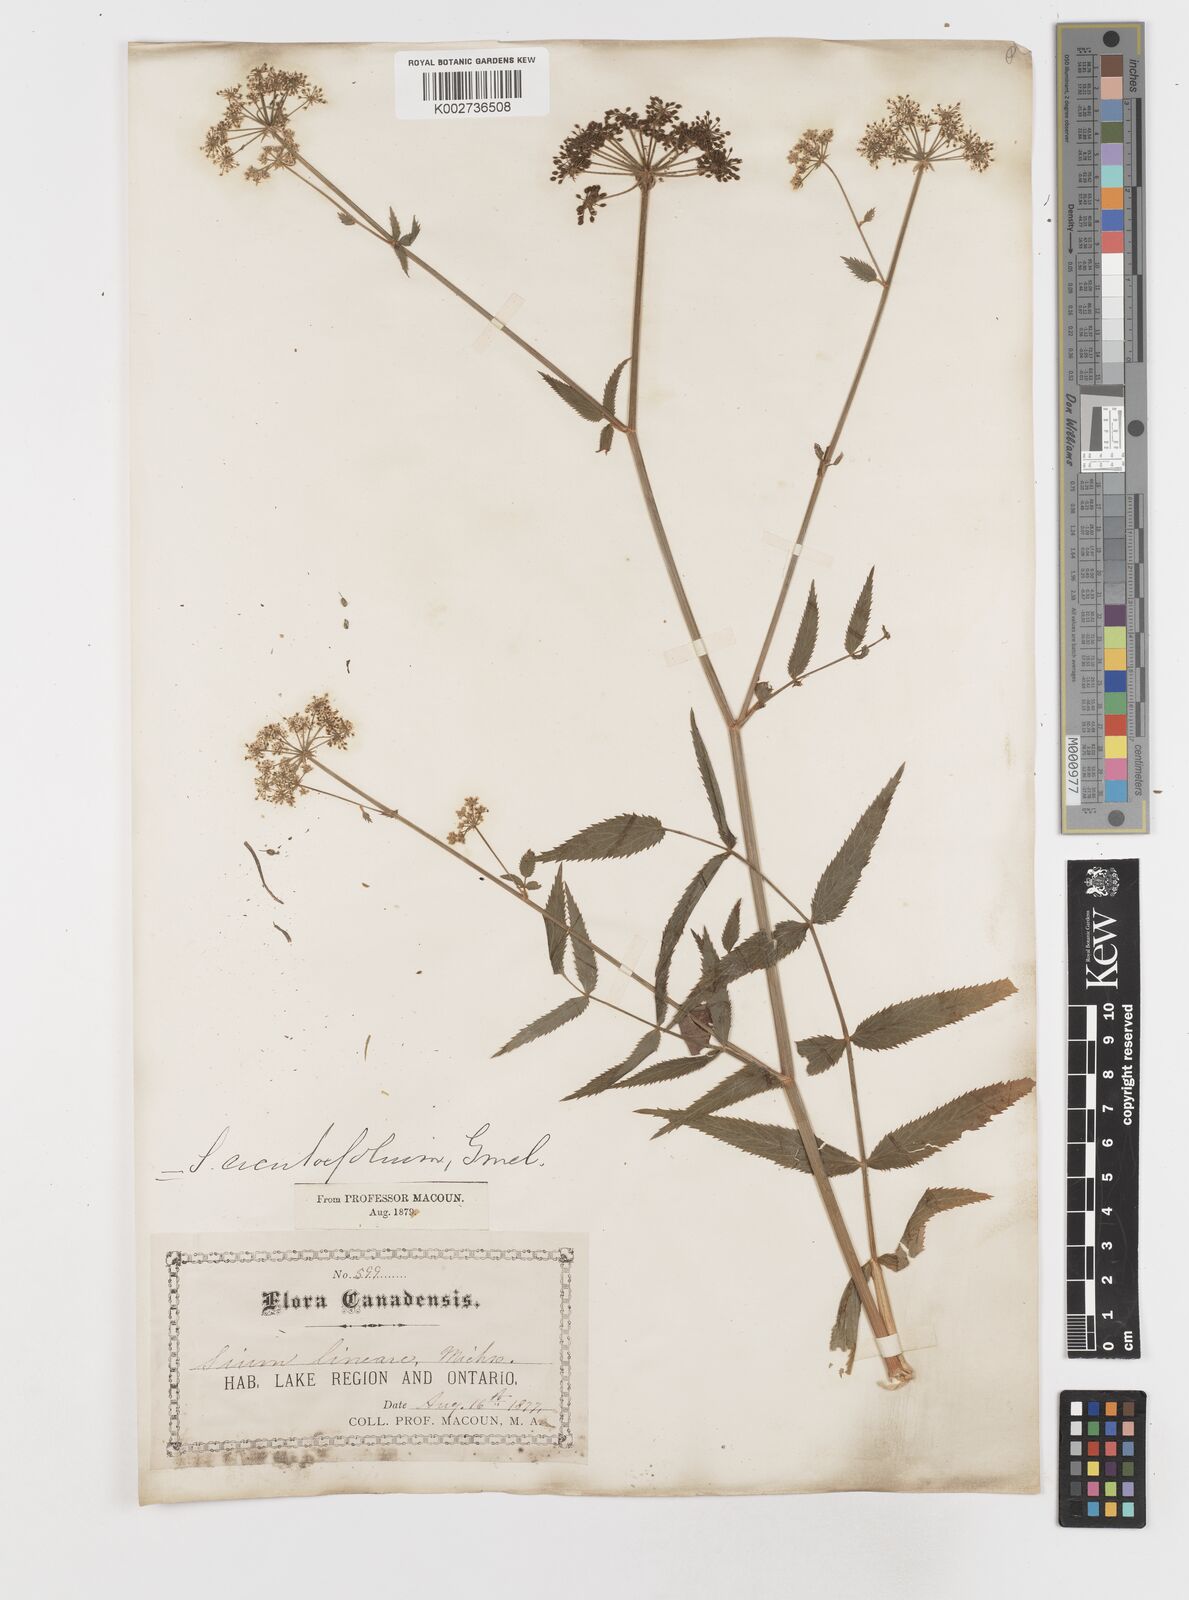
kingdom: Plantae
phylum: Tracheophyta
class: Magnoliopsida
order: Apiales
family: Apiaceae
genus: Sium
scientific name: Sium suave
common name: Hemlock water-parsnip
